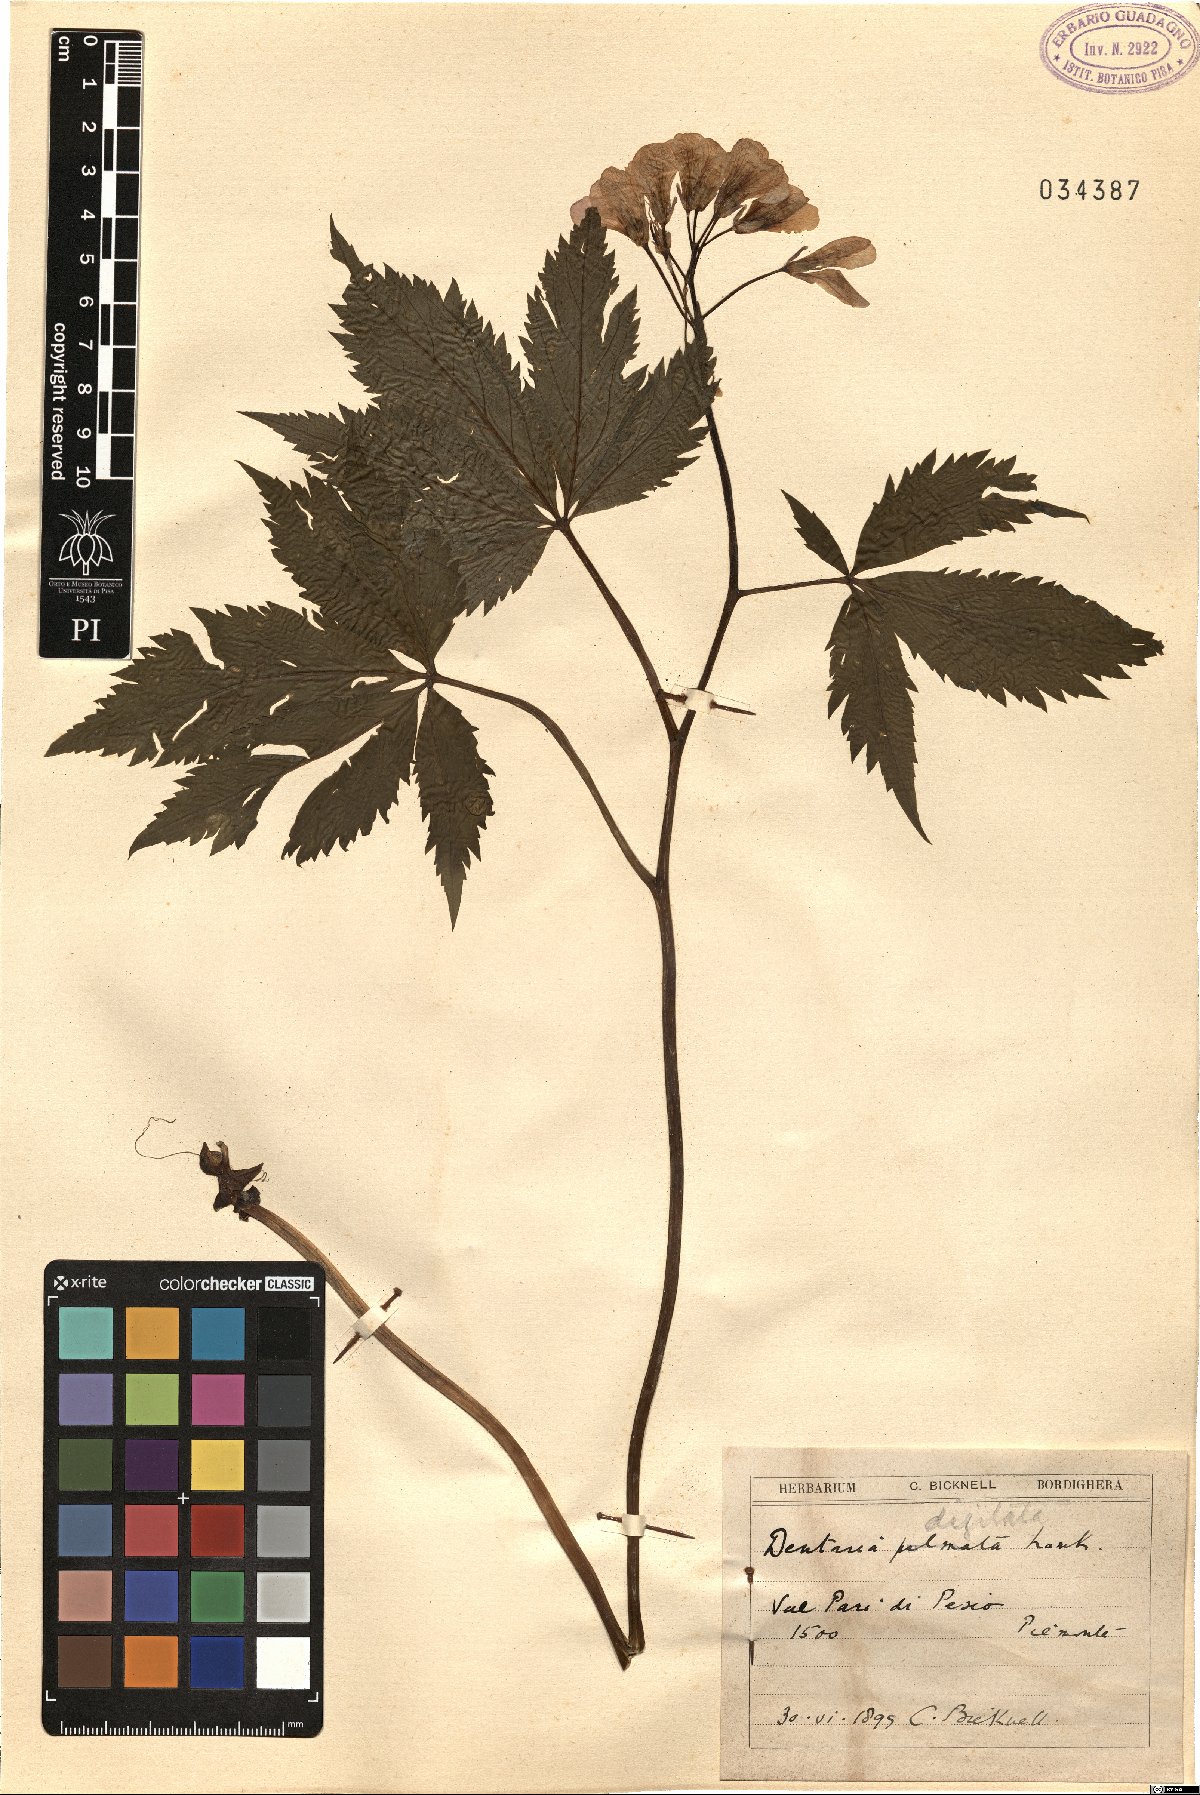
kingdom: Plantae
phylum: Tracheophyta
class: Magnoliopsida
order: Brassicales
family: Brassicaceae
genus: Cardamine
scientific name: Cardamine pentaphyllos
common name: Five-leaflet bitter-cress
